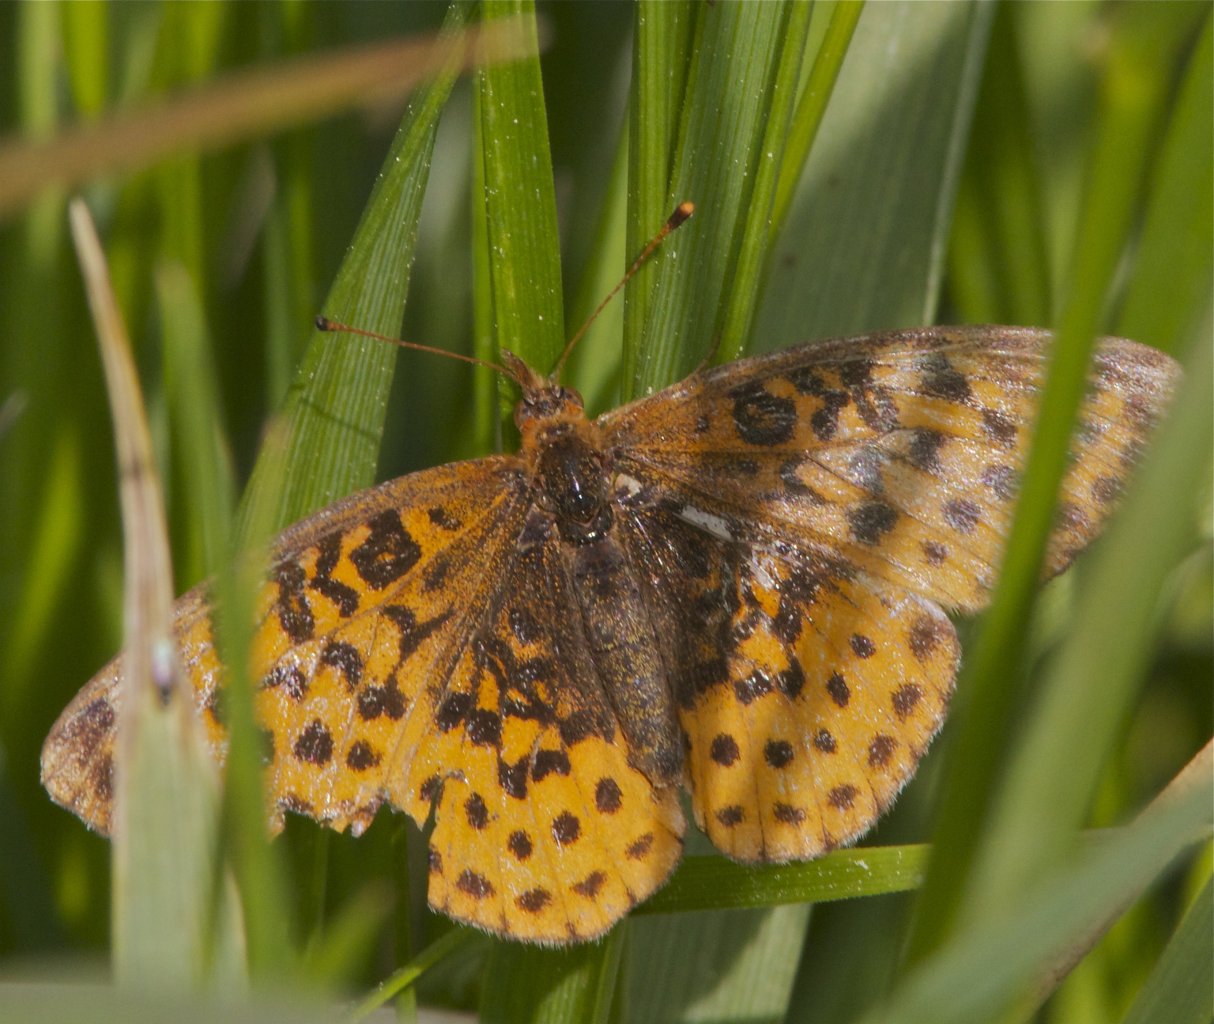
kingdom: Animalia
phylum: Arthropoda
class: Insecta
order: Lepidoptera
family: Nymphalidae
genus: Clossiana
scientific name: Clossiana toddi
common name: Meadow Fritillary
